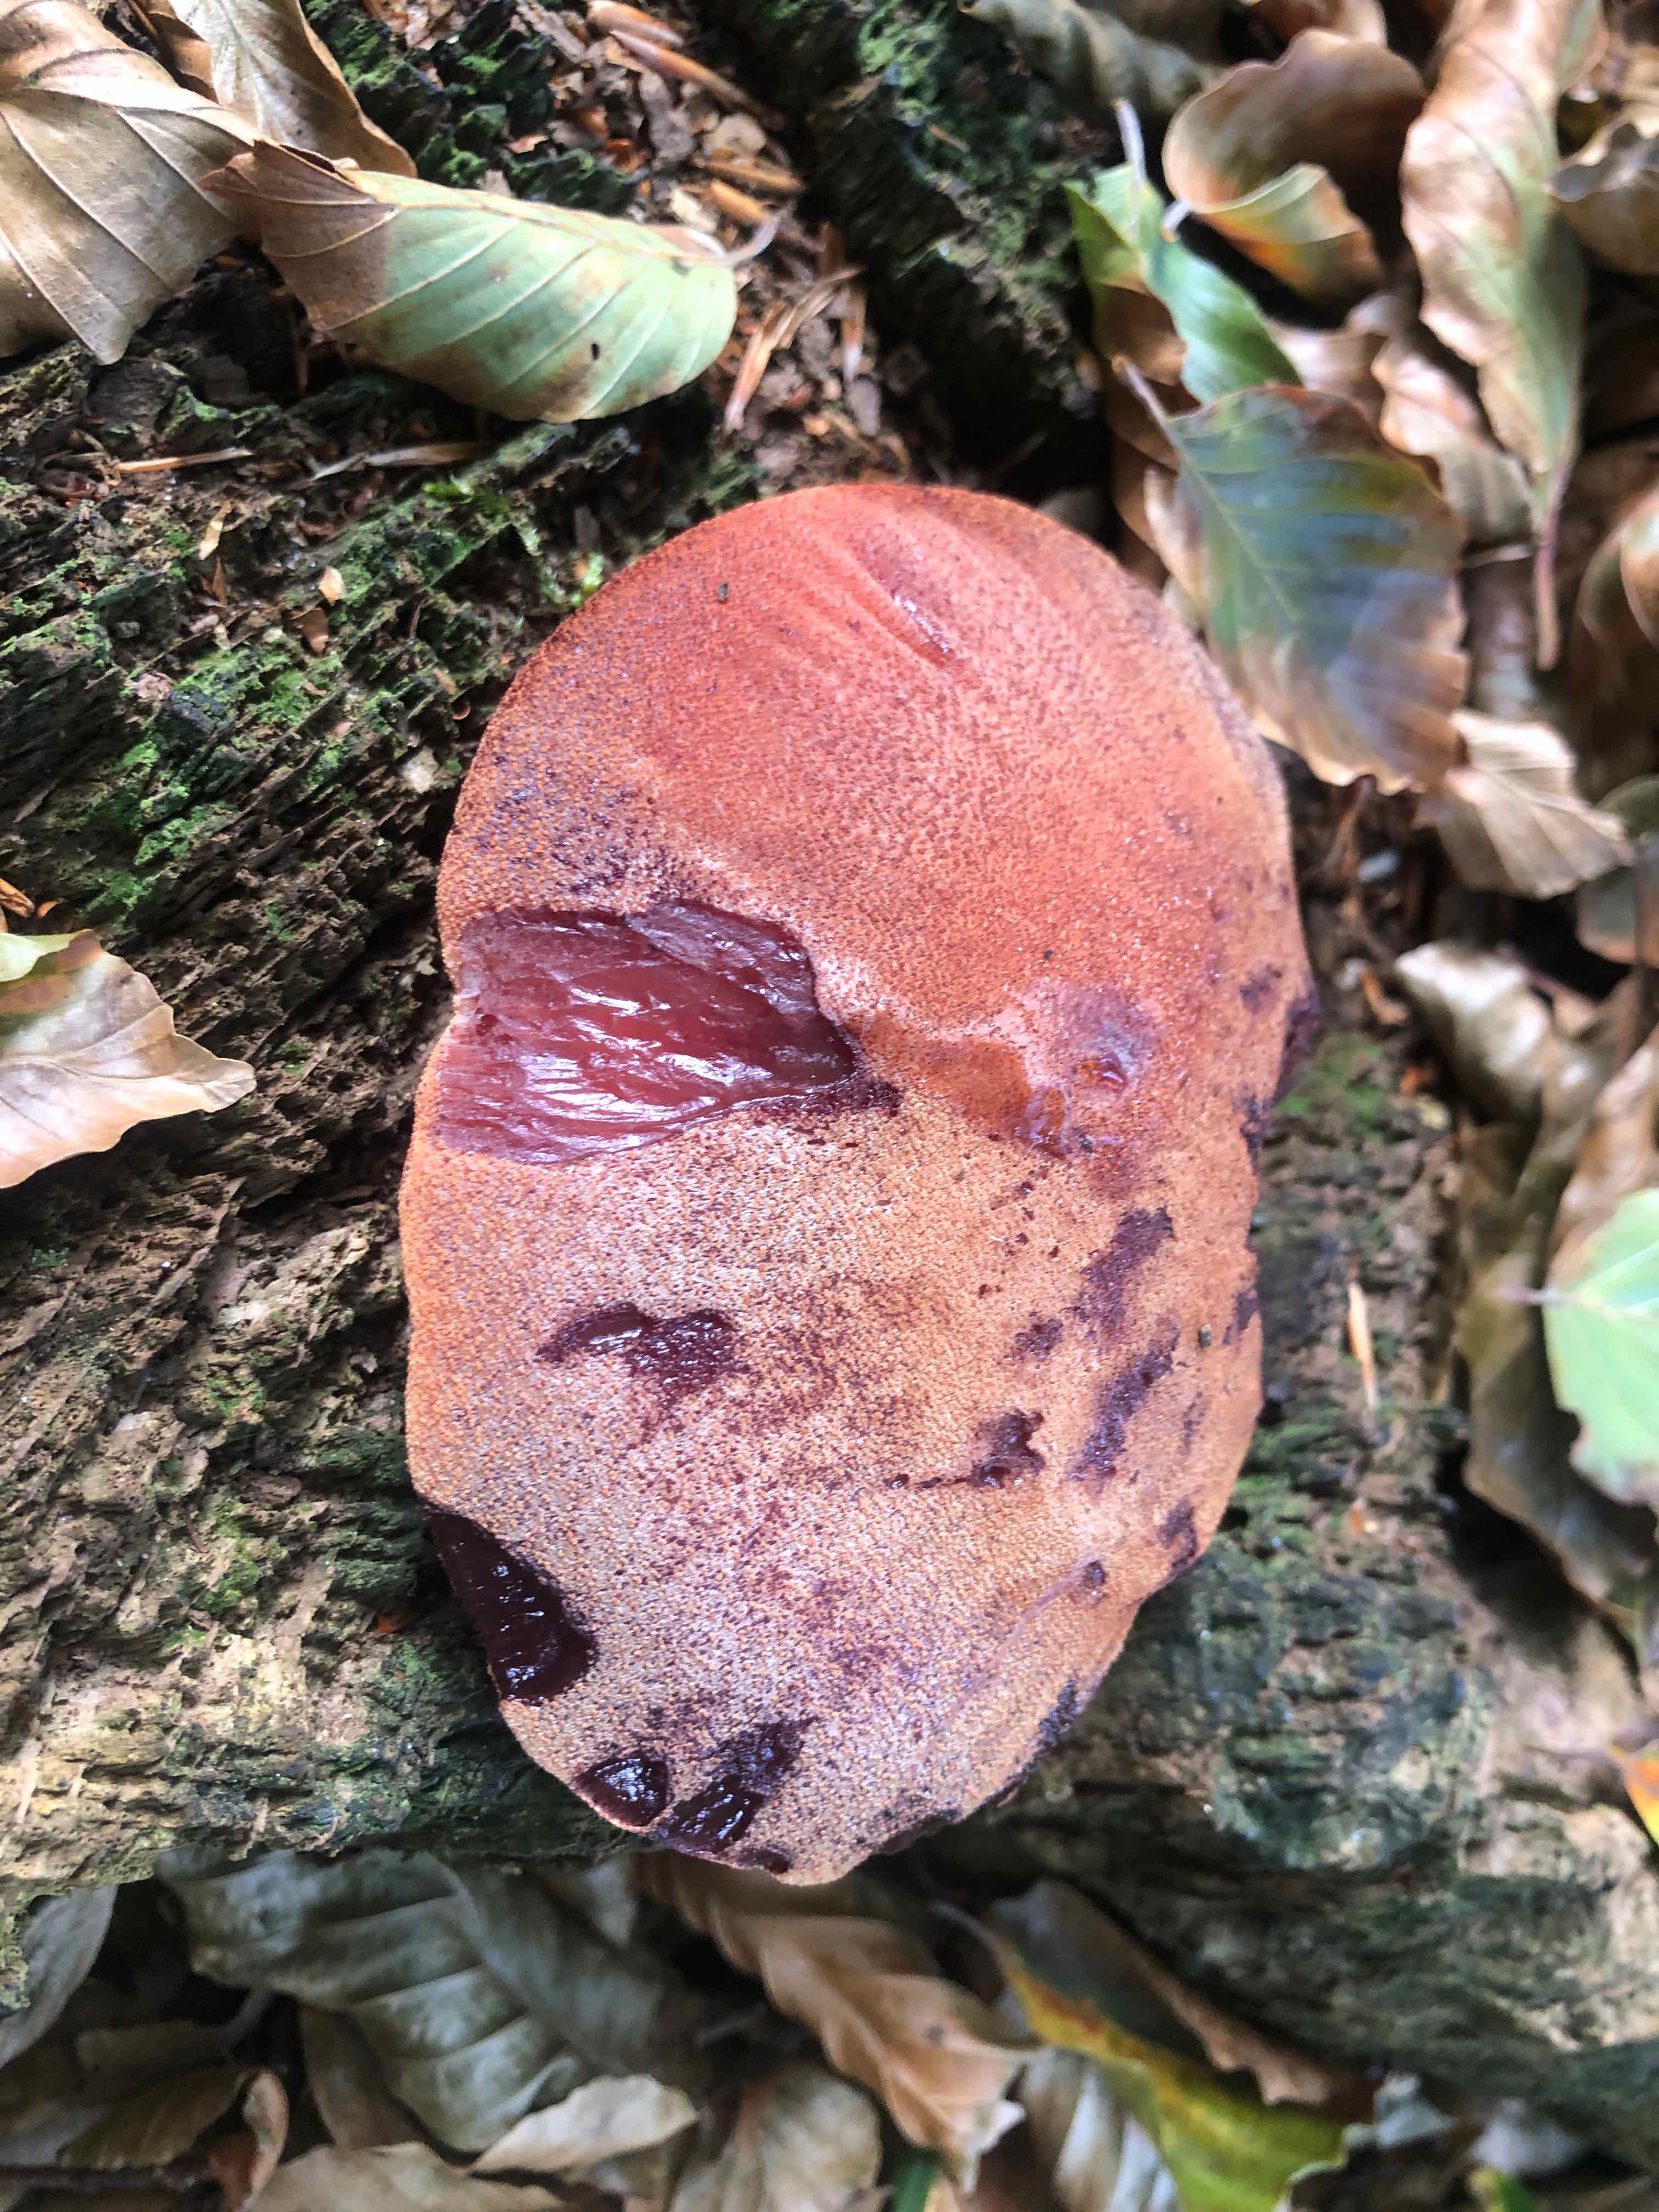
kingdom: Fungi
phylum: Basidiomycota
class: Agaricomycetes
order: Agaricales
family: Fistulinaceae
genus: Fistulina
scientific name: Fistulina hepatica
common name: oksetunge
